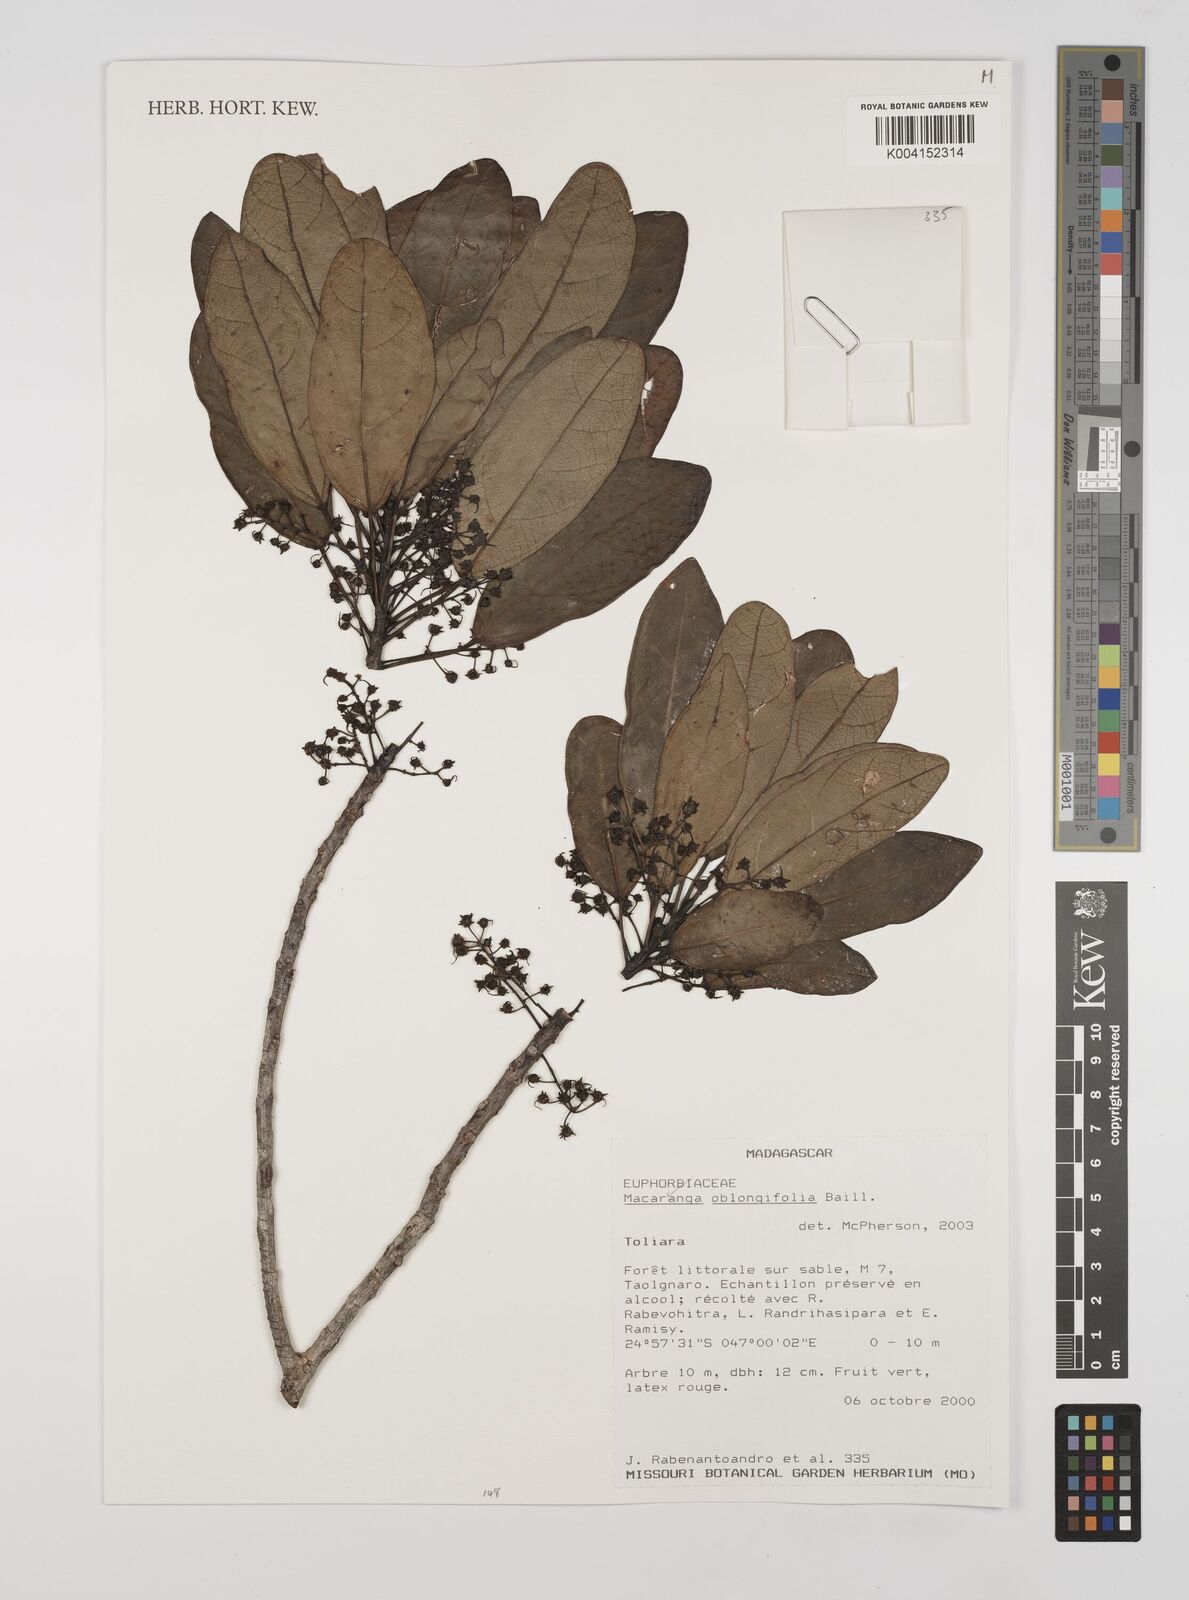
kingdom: Plantae
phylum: Tracheophyta
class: Magnoliopsida
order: Malpighiales
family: Euphorbiaceae
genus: Macaranga
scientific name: Macaranga oblongifolia
